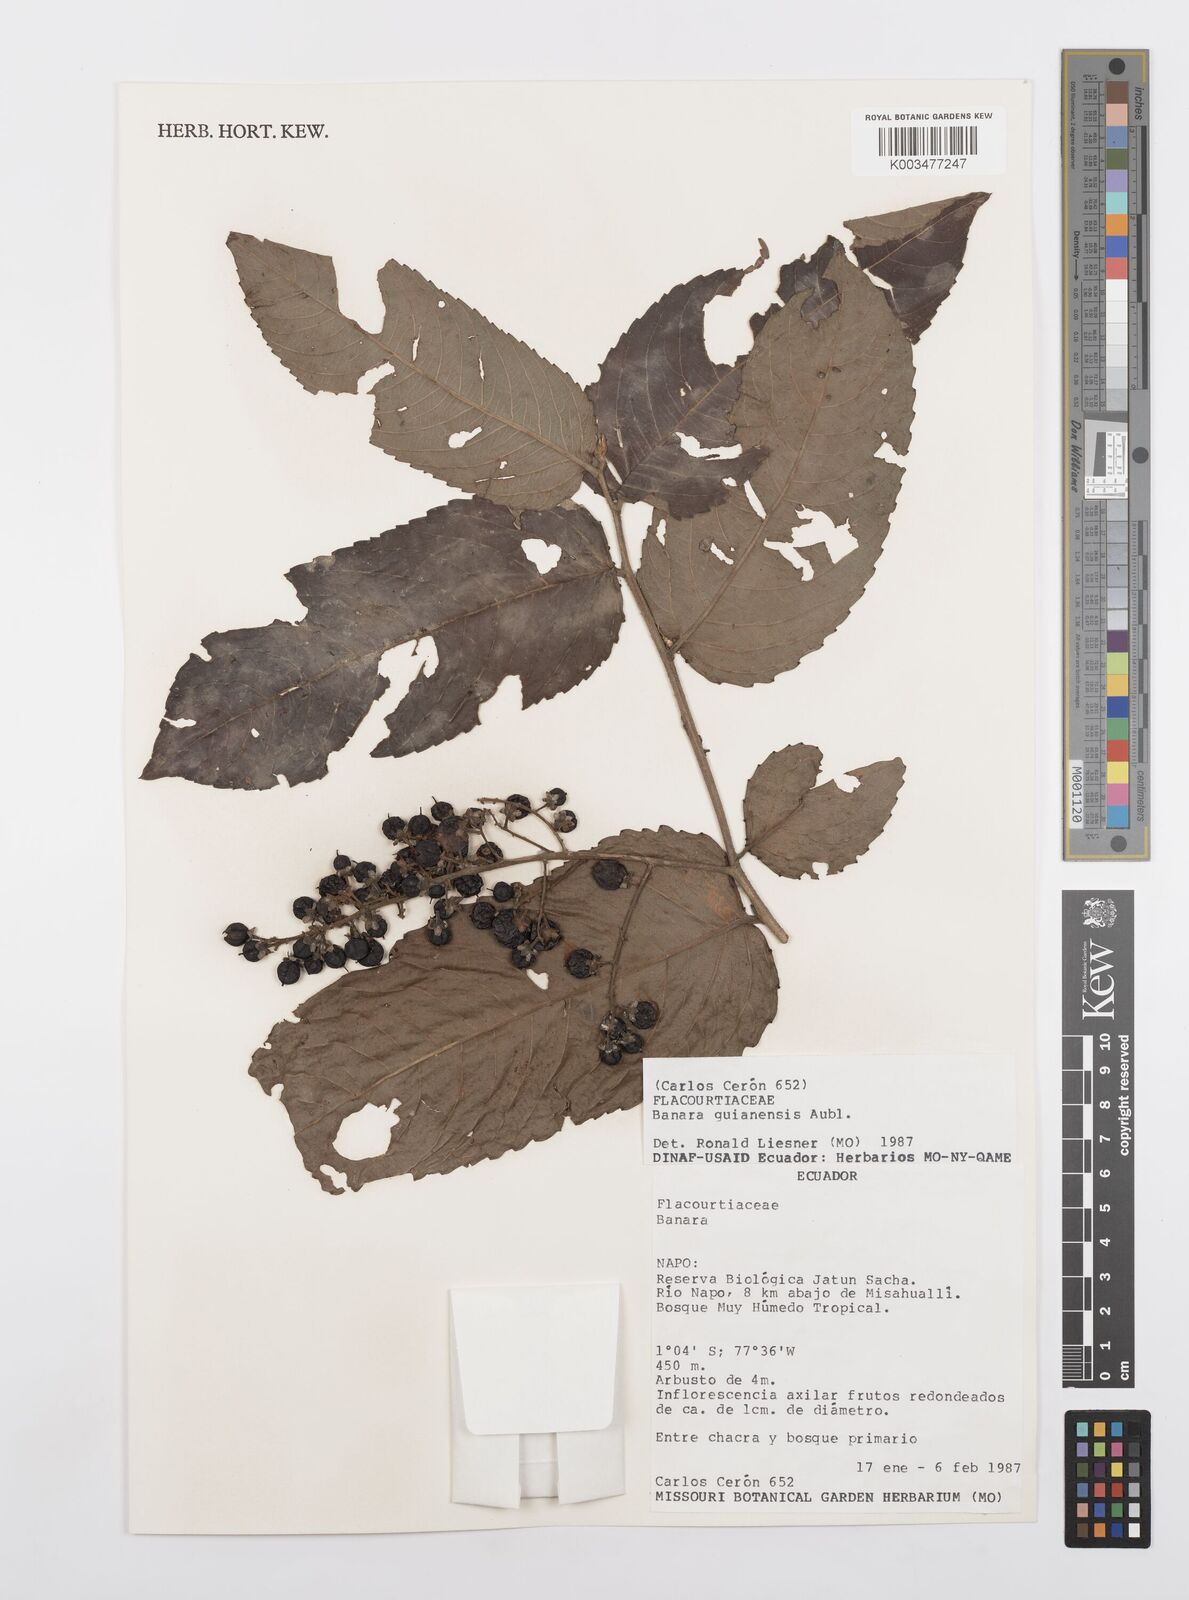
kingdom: Plantae
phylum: Tracheophyta
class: Magnoliopsida
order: Malpighiales
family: Salicaceae
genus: Banara
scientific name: Banara guianensis
